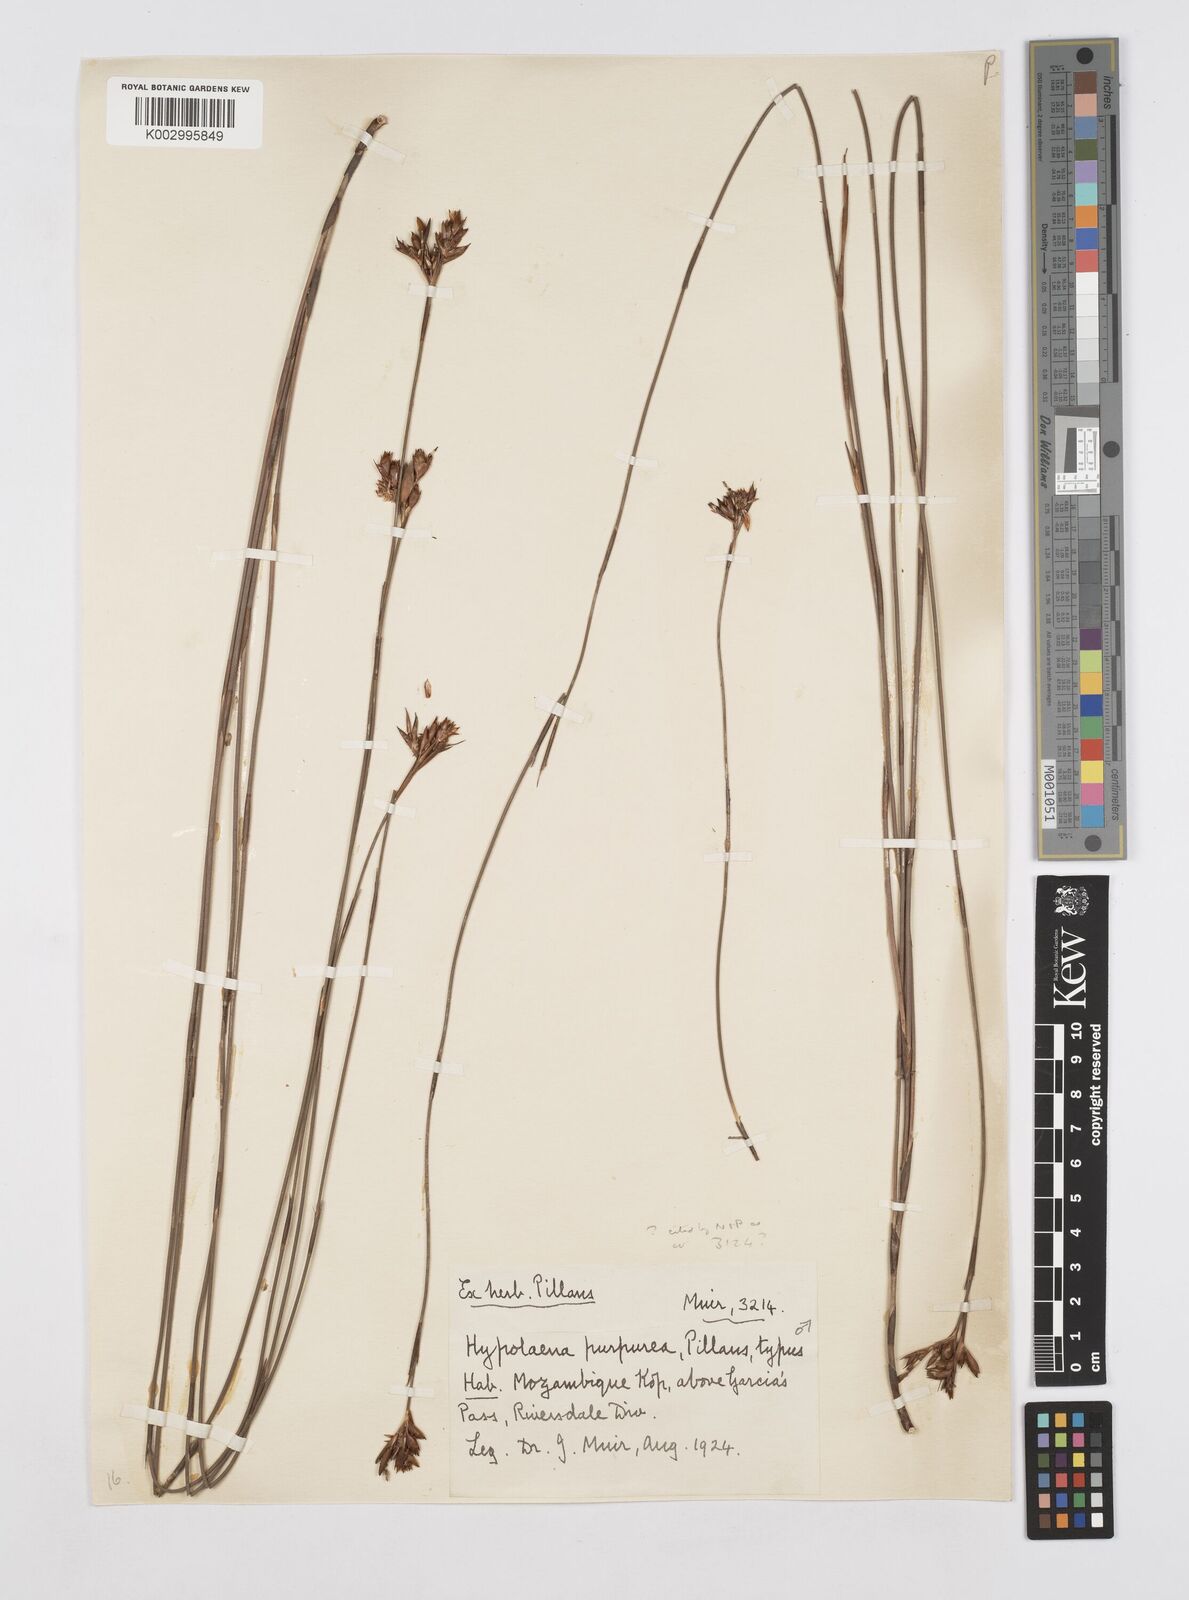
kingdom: Plantae
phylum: Tracheophyta
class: Liliopsida
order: Poales
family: Restionaceae
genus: Mastersiella
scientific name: Mastersiella purpurea
